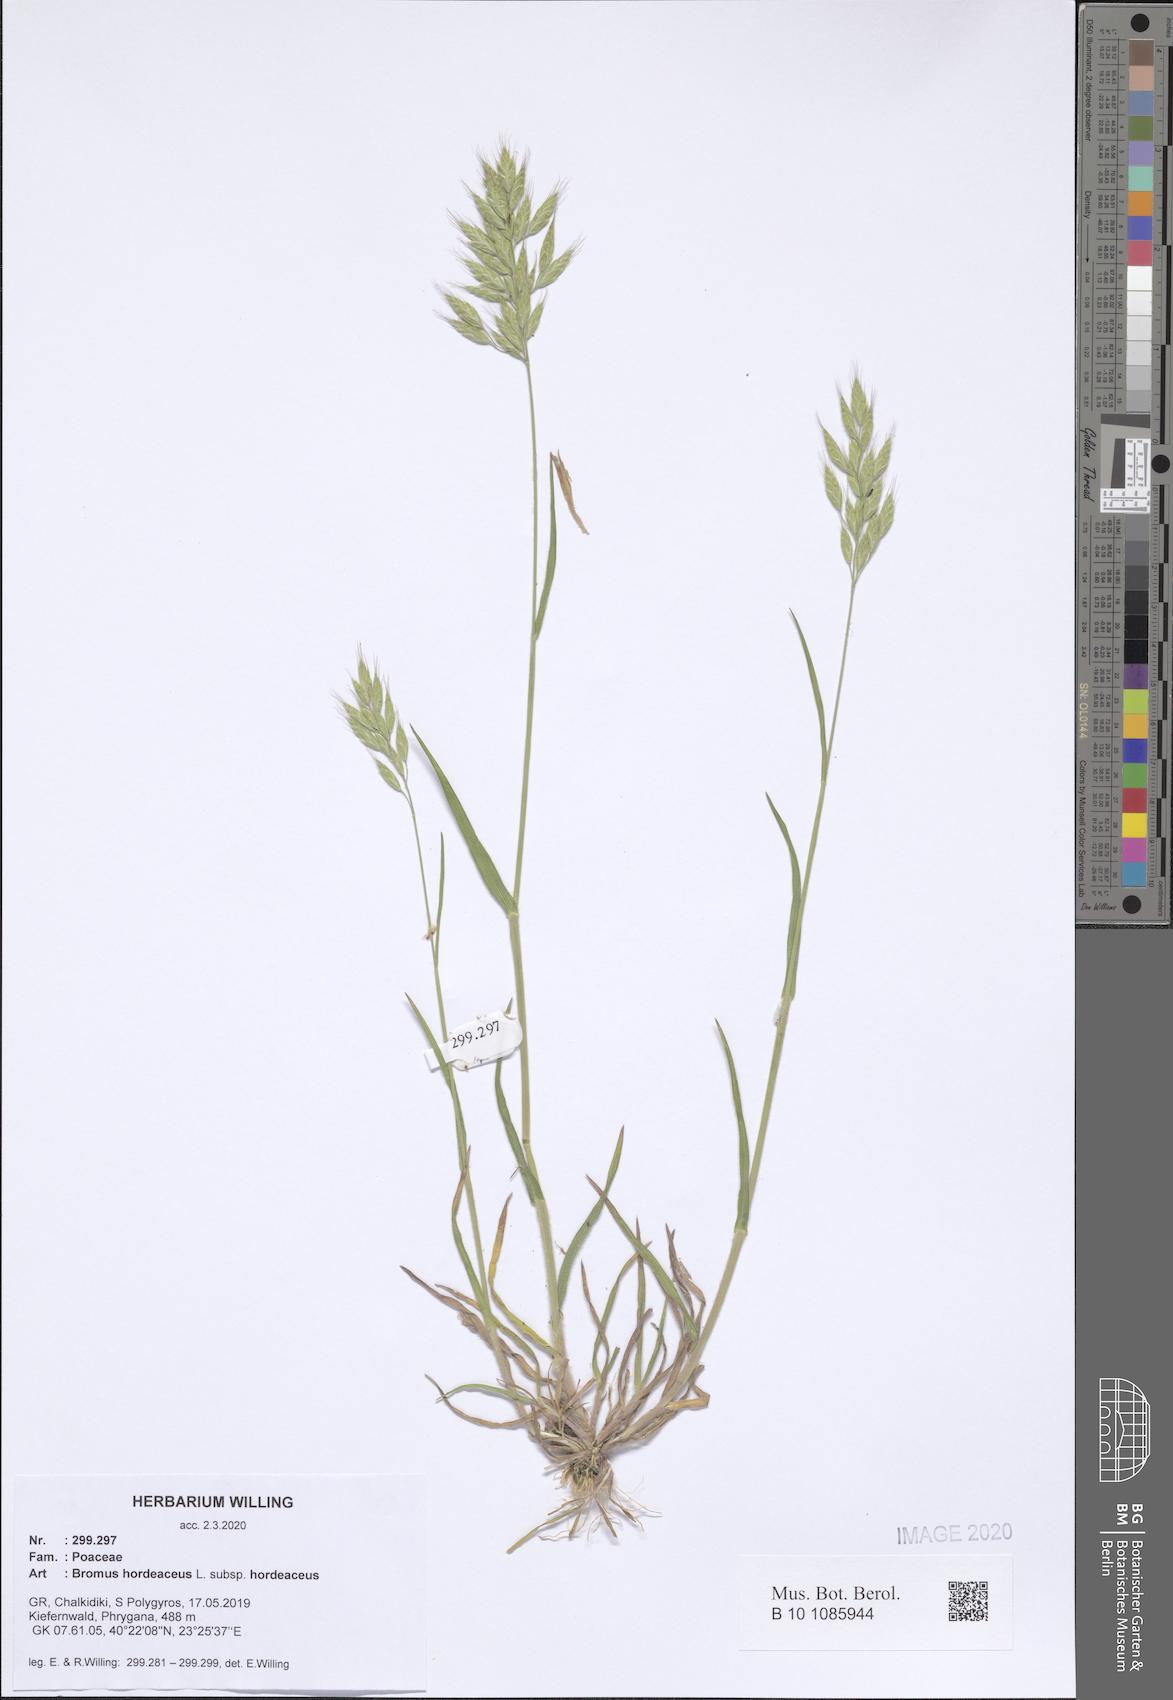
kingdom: Plantae
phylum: Tracheophyta
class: Liliopsida
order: Poales
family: Poaceae
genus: Bromus
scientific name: Bromus hordeaceus
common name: Soft brome
